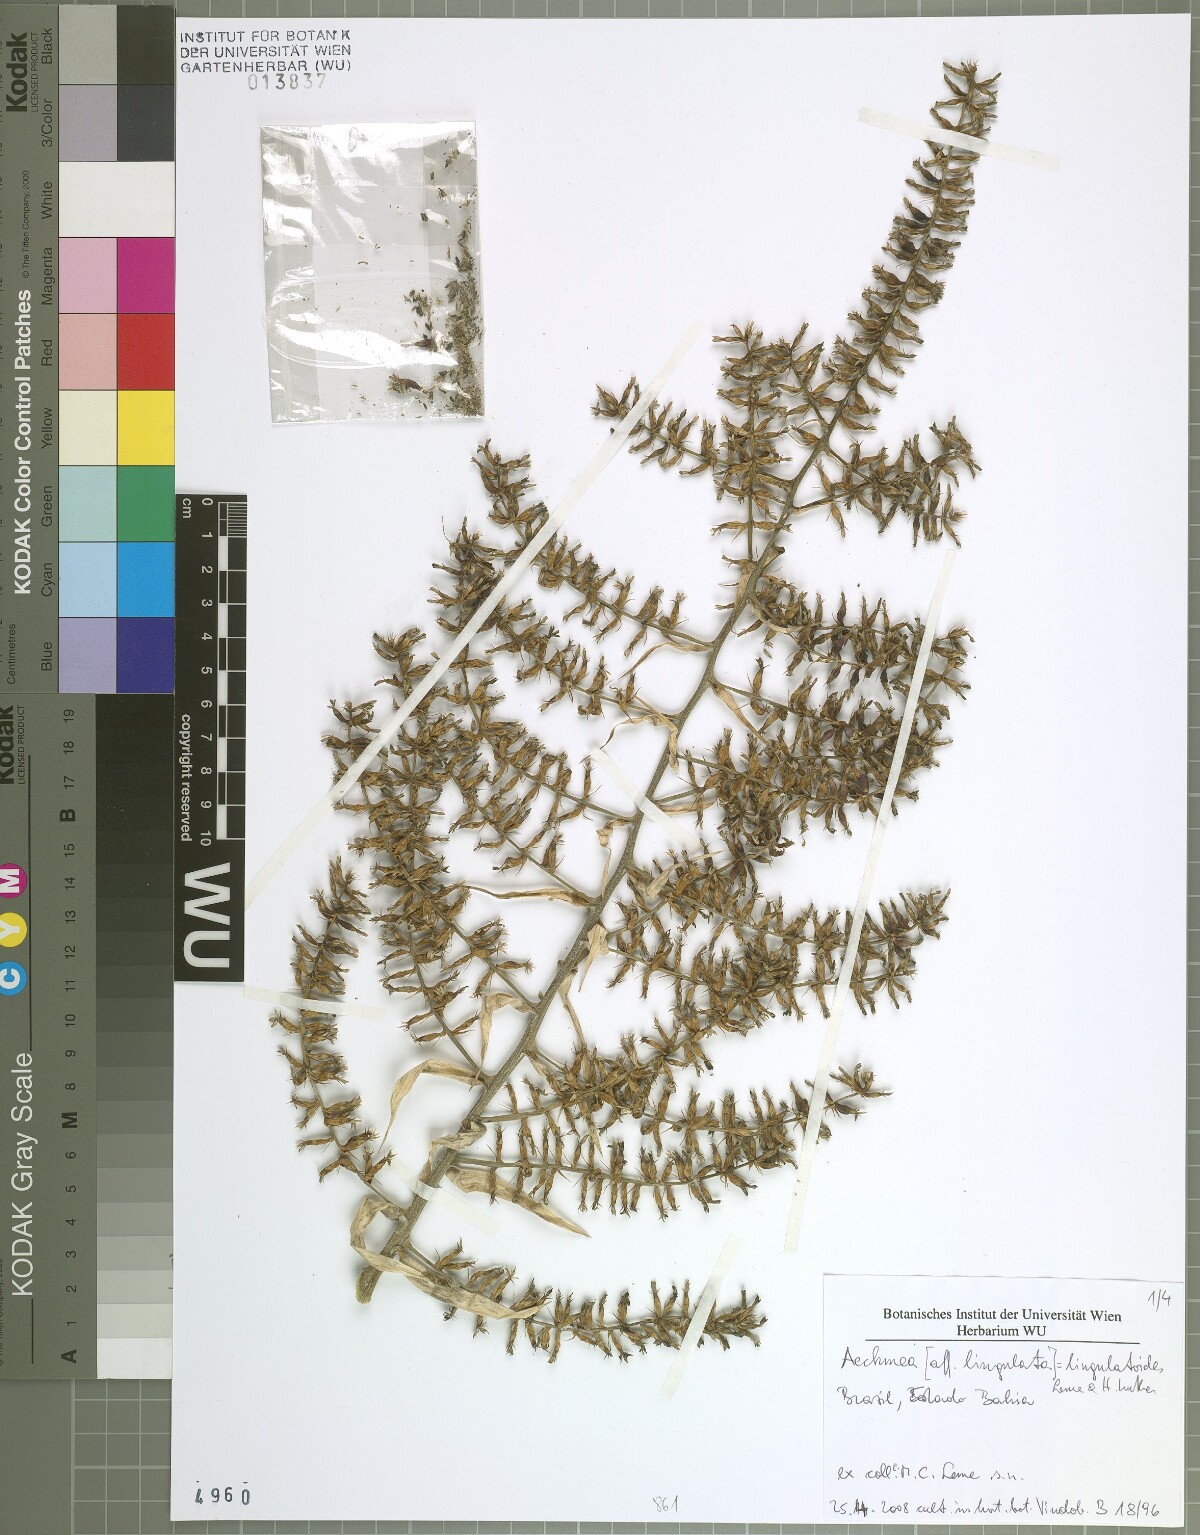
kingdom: Plantae
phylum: Tracheophyta
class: Liliopsida
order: Poales
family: Bromeliaceae
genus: Wittmackia
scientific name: Wittmackia lingulatoides
